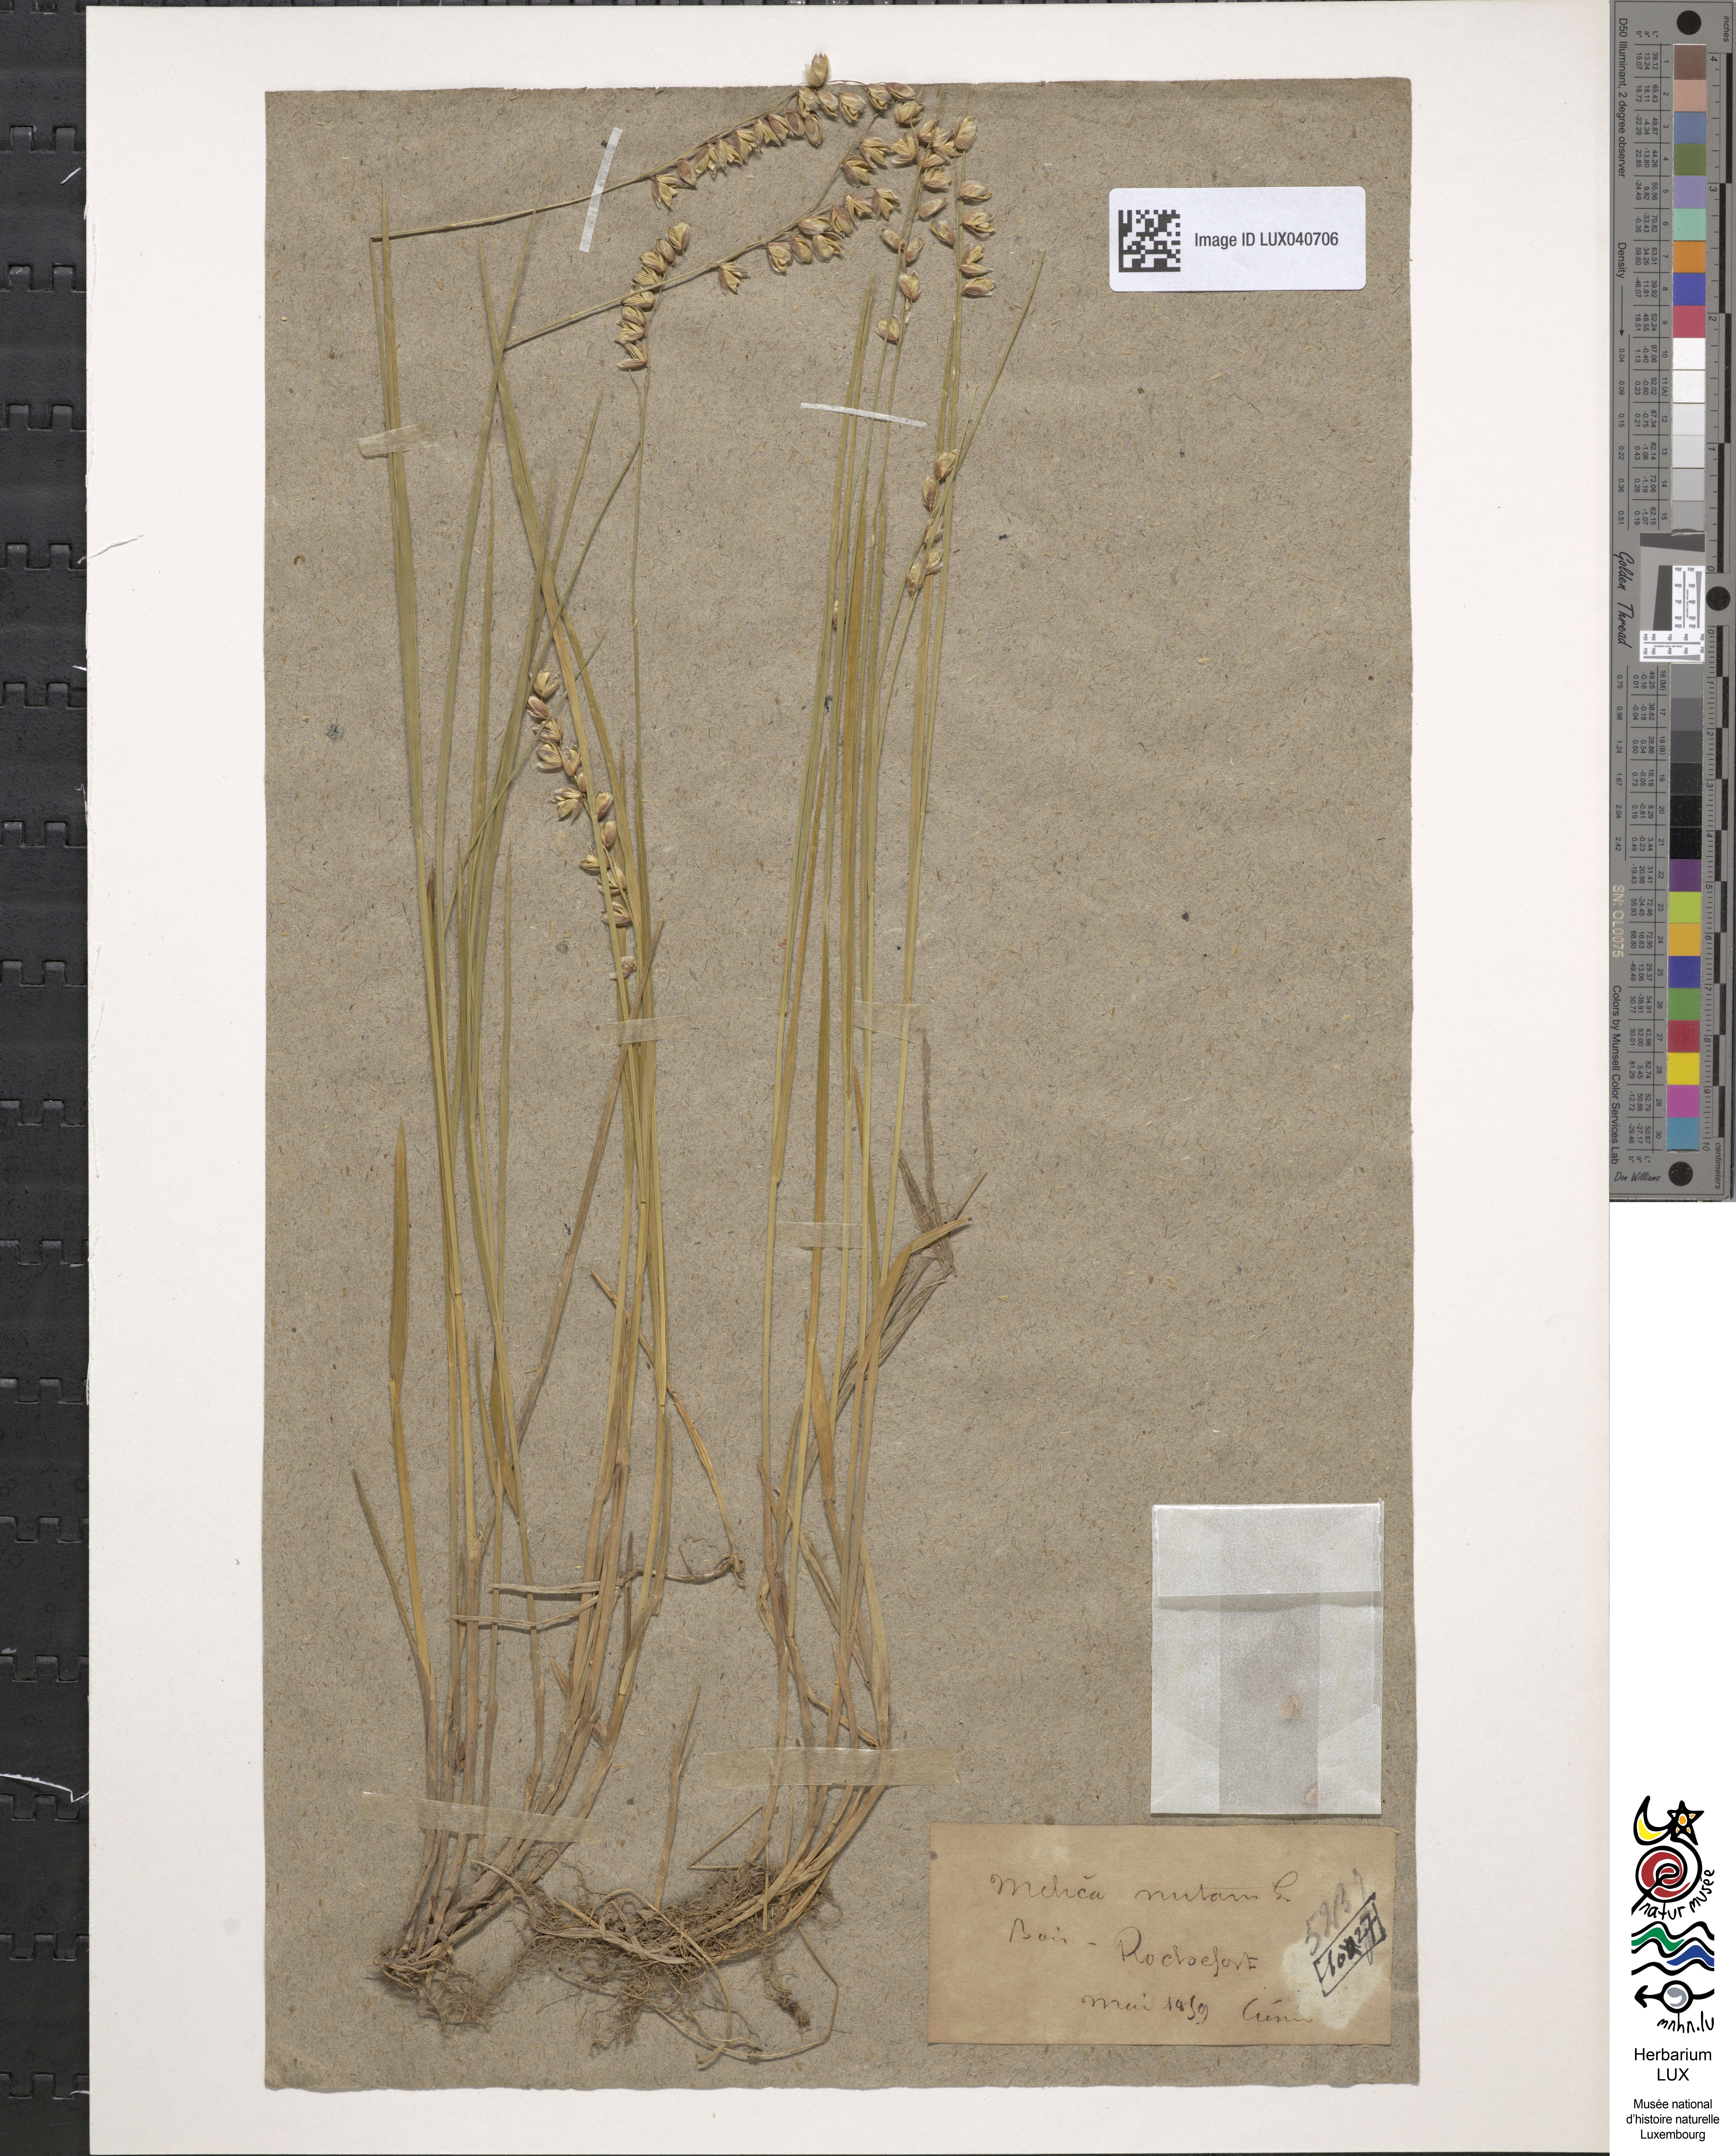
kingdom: Plantae
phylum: Tracheophyta
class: Liliopsida
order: Poales
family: Poaceae
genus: Melica
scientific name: Melica nutans
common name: Mountain melick
